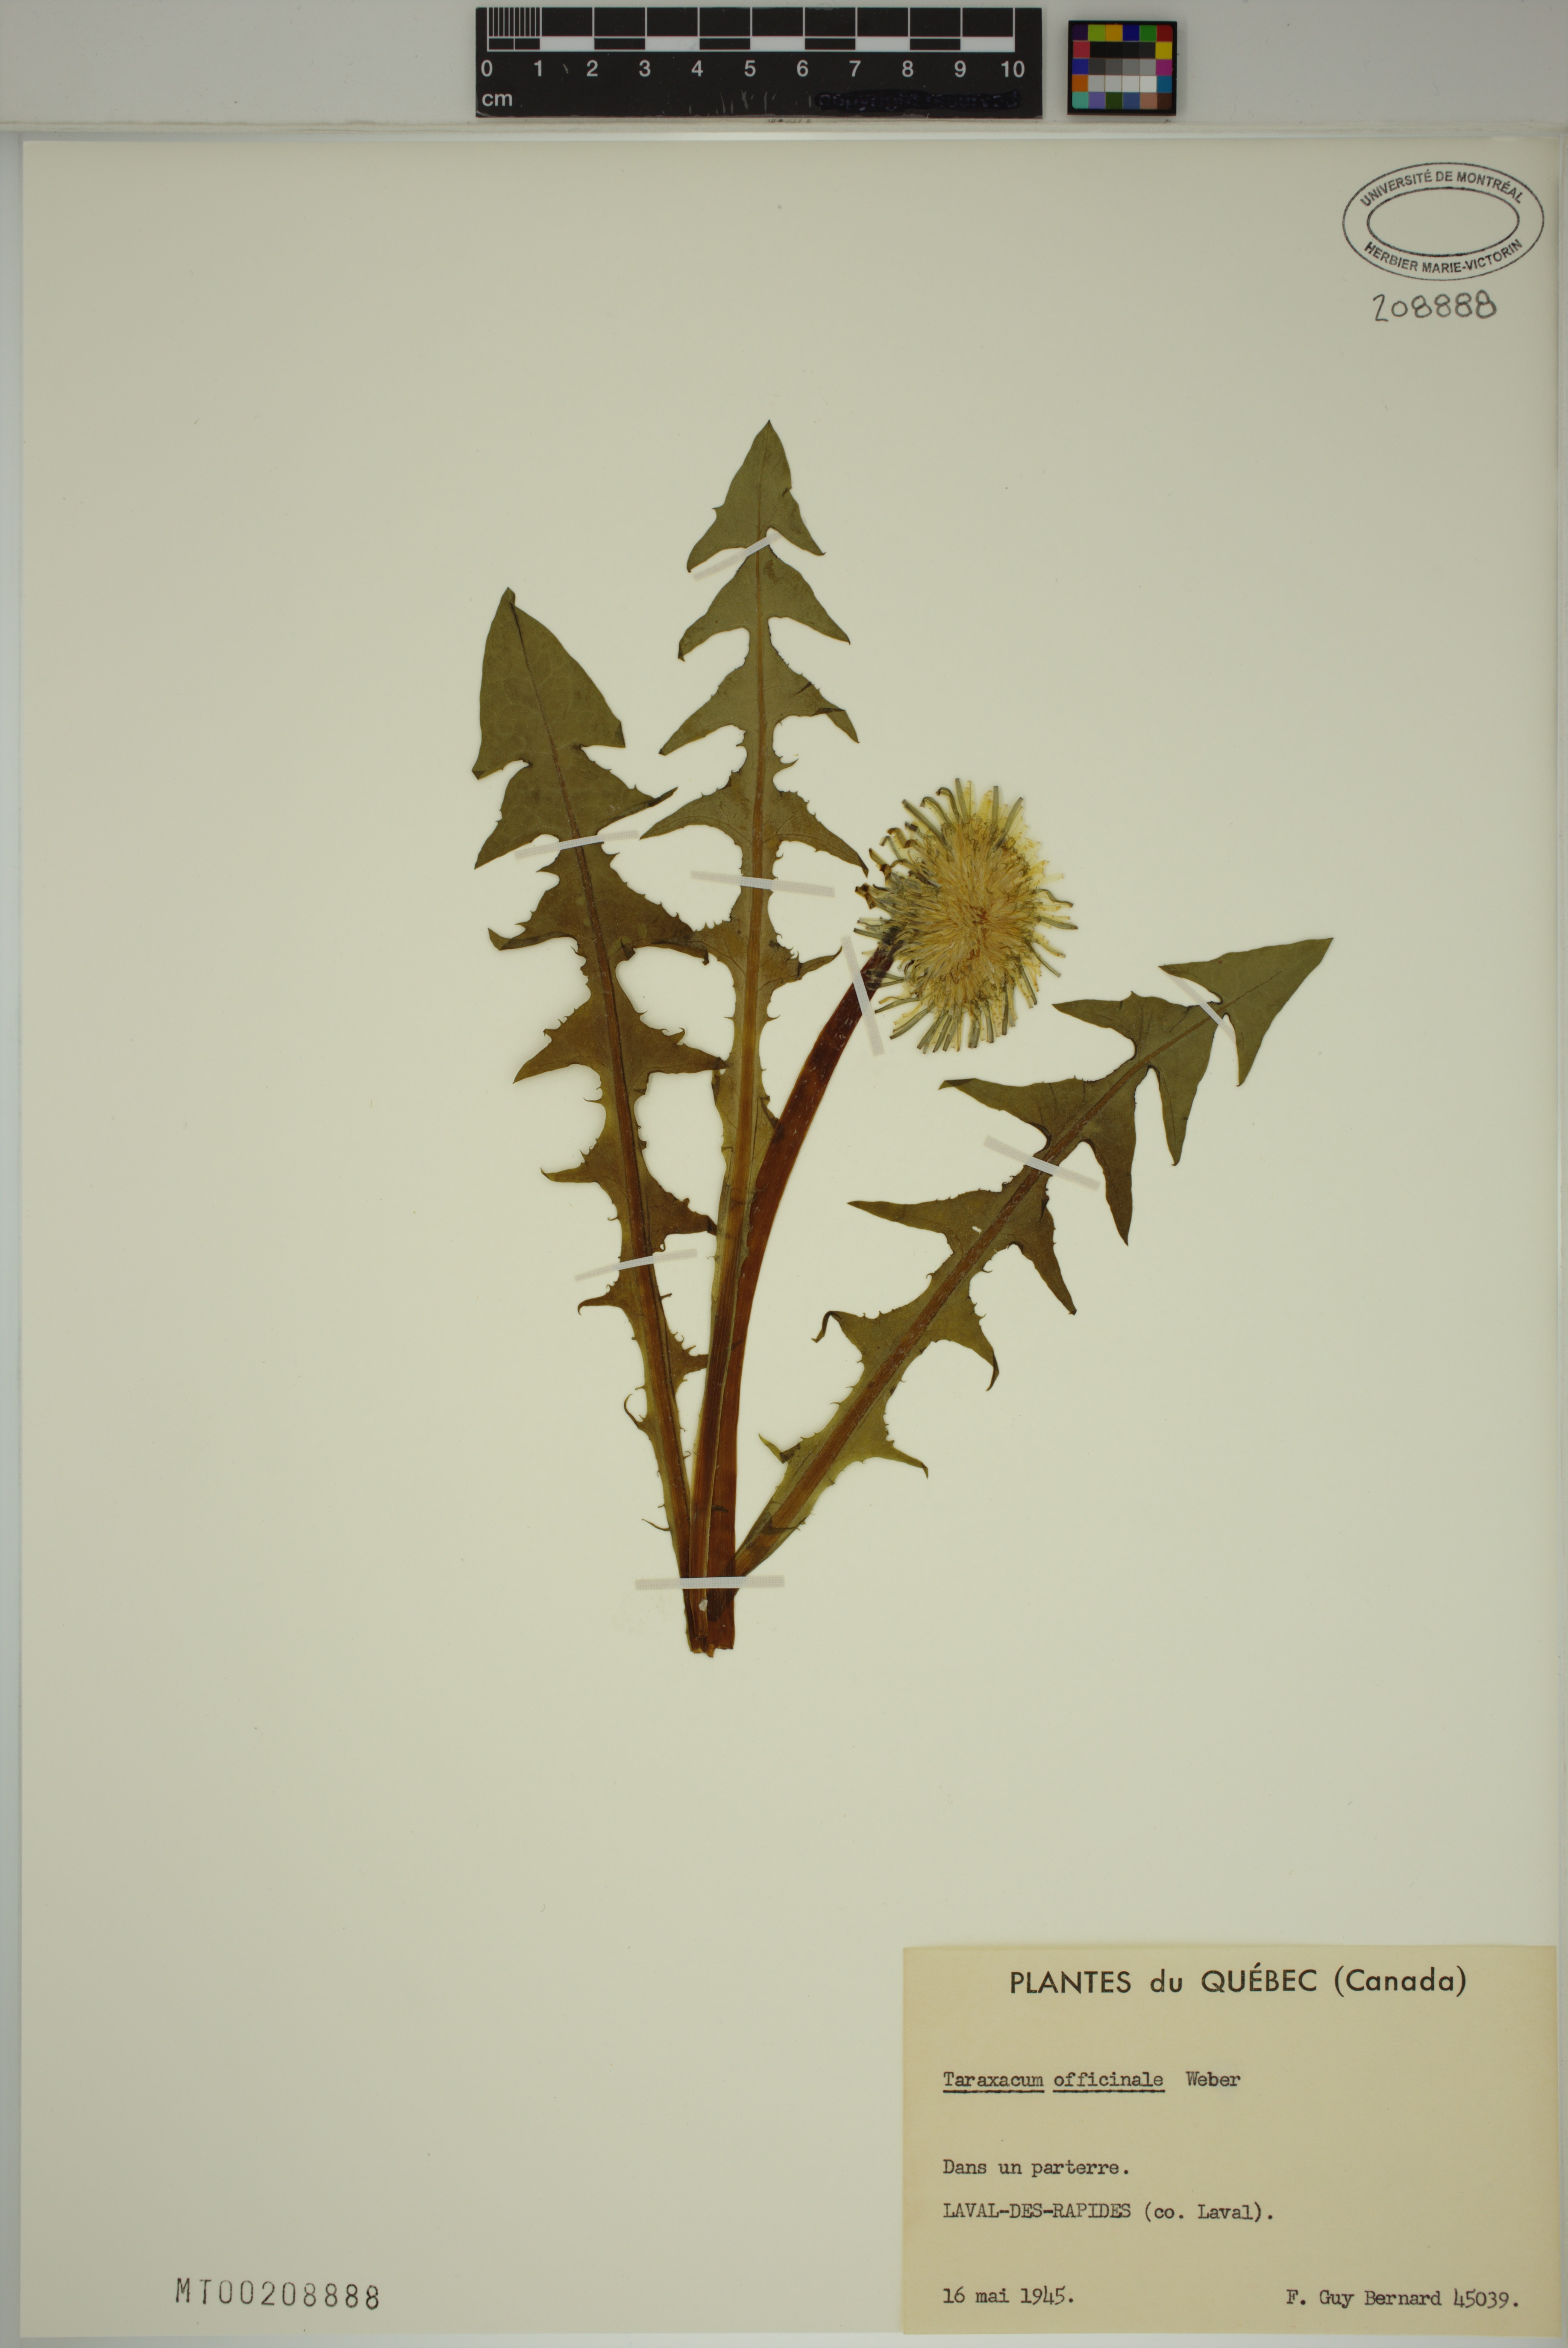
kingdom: Plantae
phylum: Tracheophyta
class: Magnoliopsida
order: Asterales
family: Asteraceae
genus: Taraxacum
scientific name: Taraxacum officinale
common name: Common dandelion
